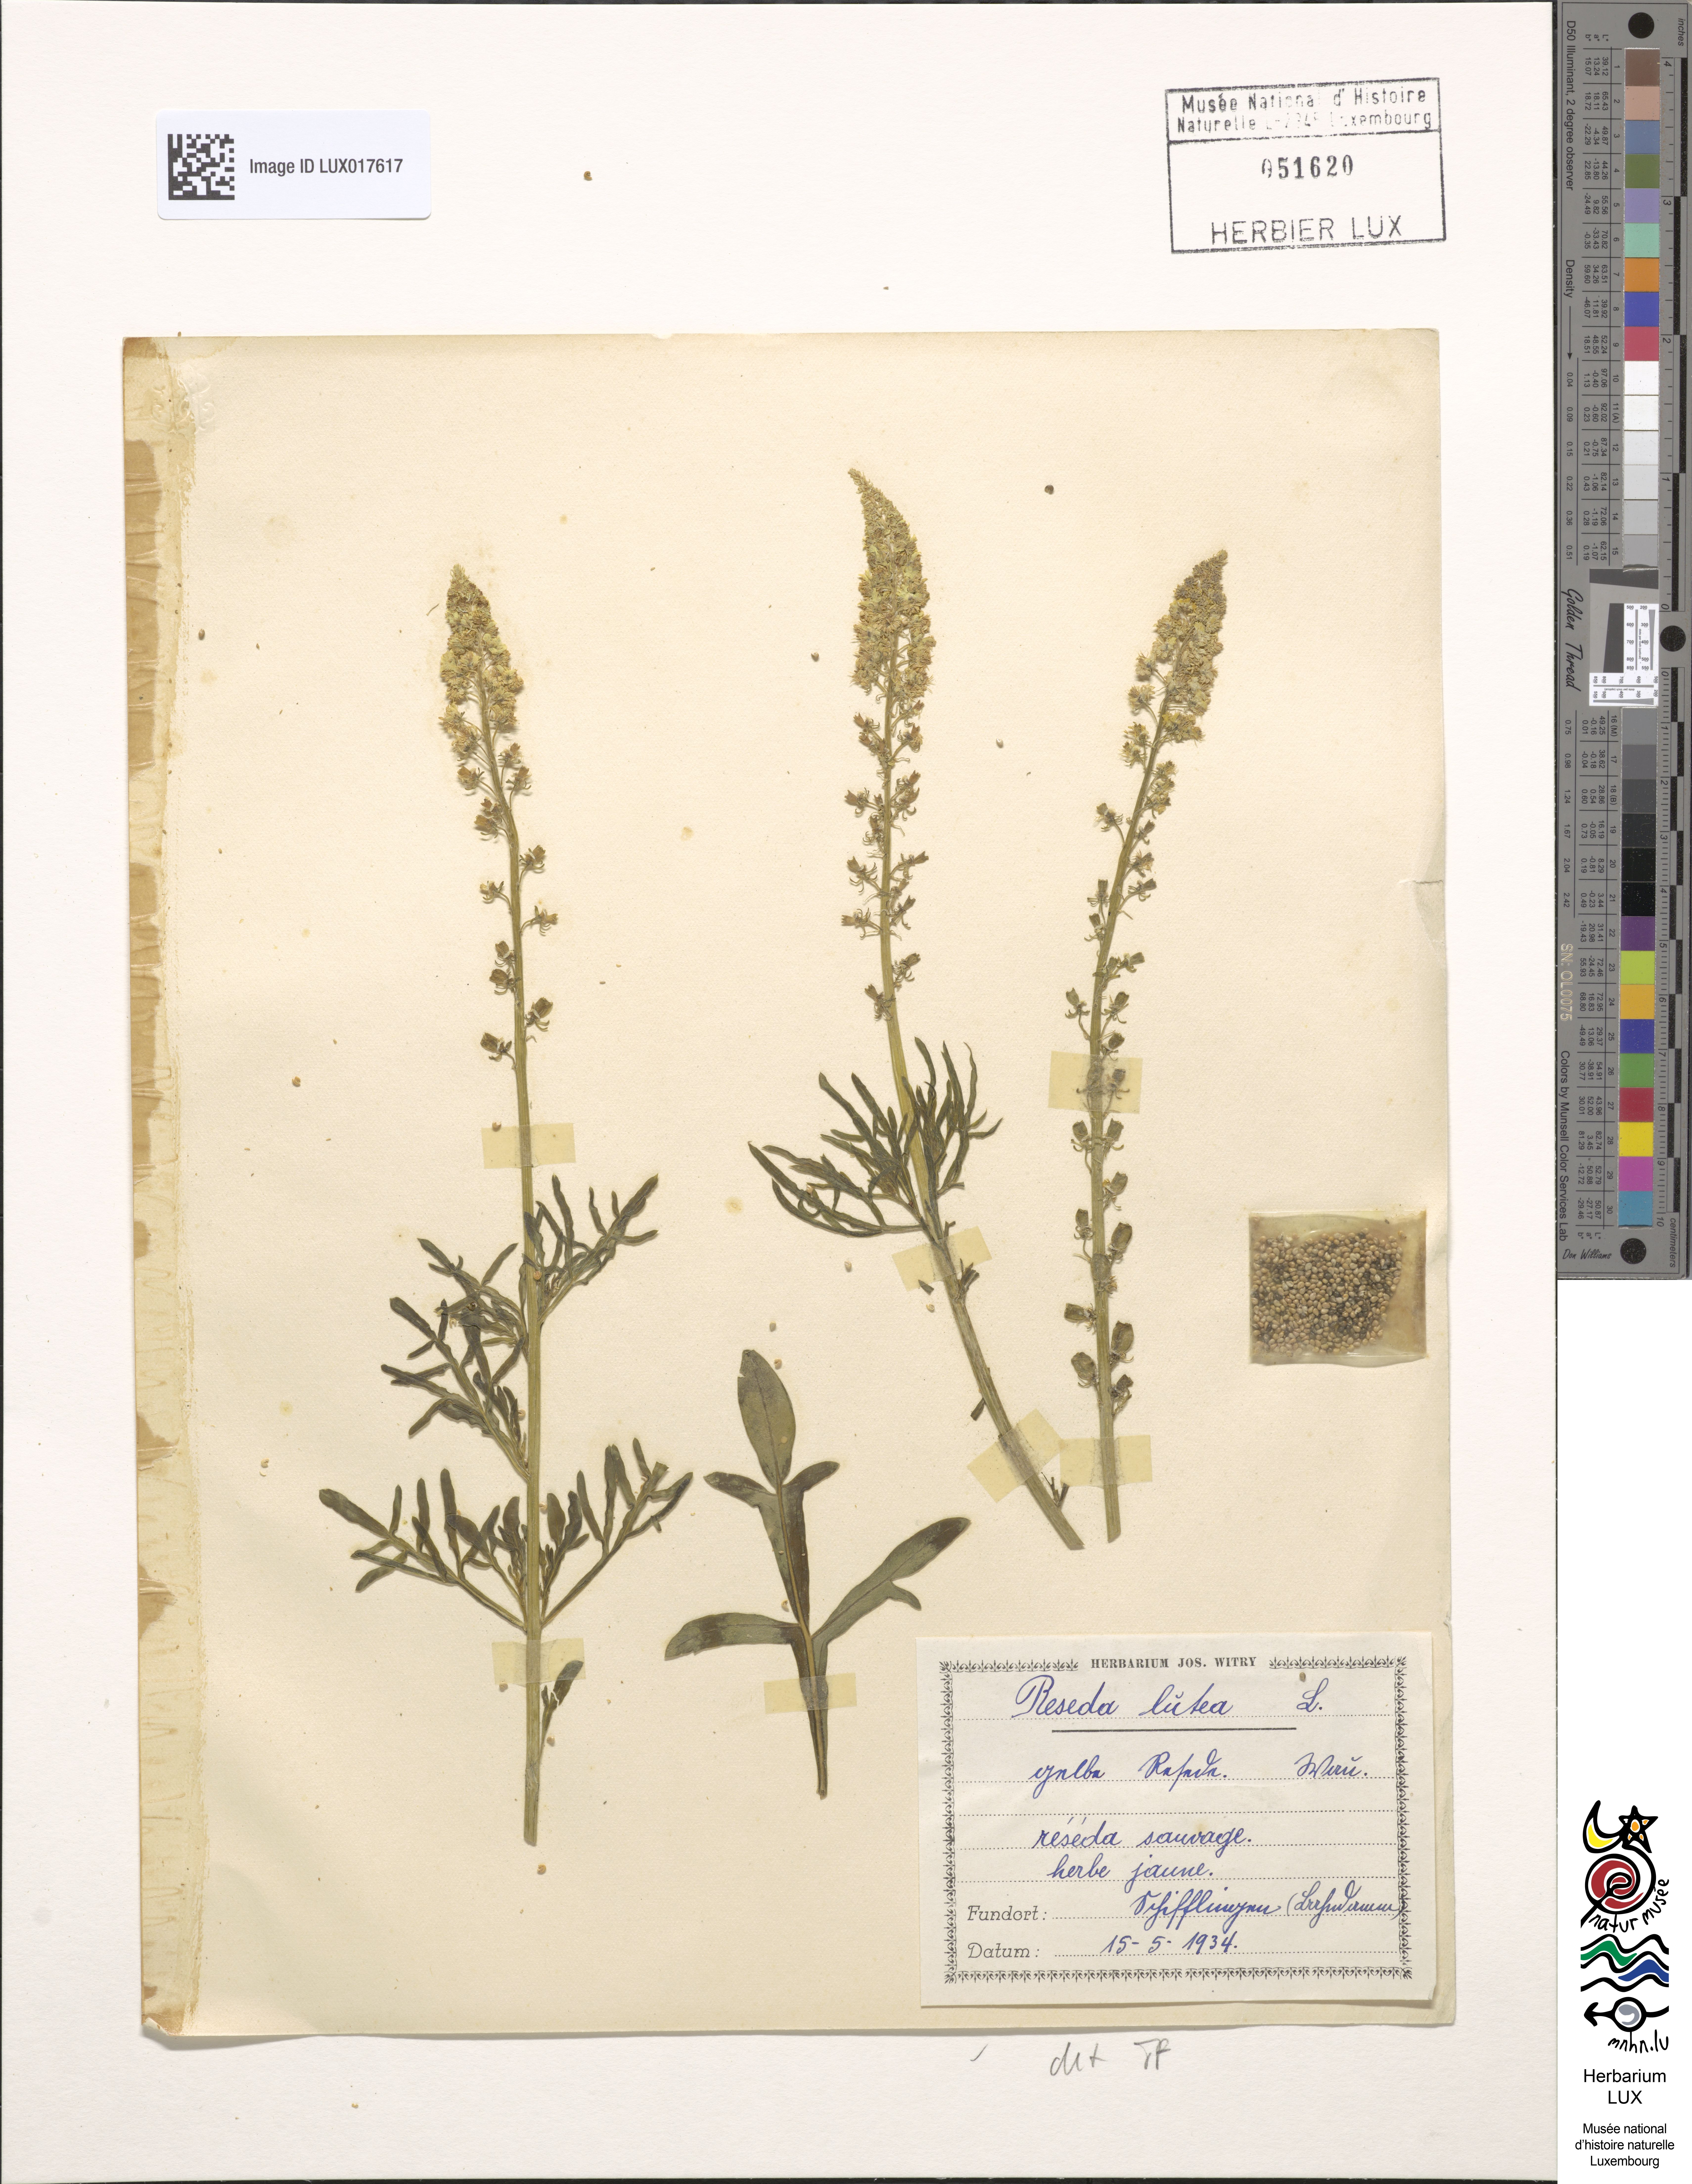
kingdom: Plantae
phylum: Tracheophyta
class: Magnoliopsida
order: Brassicales
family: Resedaceae
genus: Reseda
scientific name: Reseda lutea
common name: Wild mignonette
